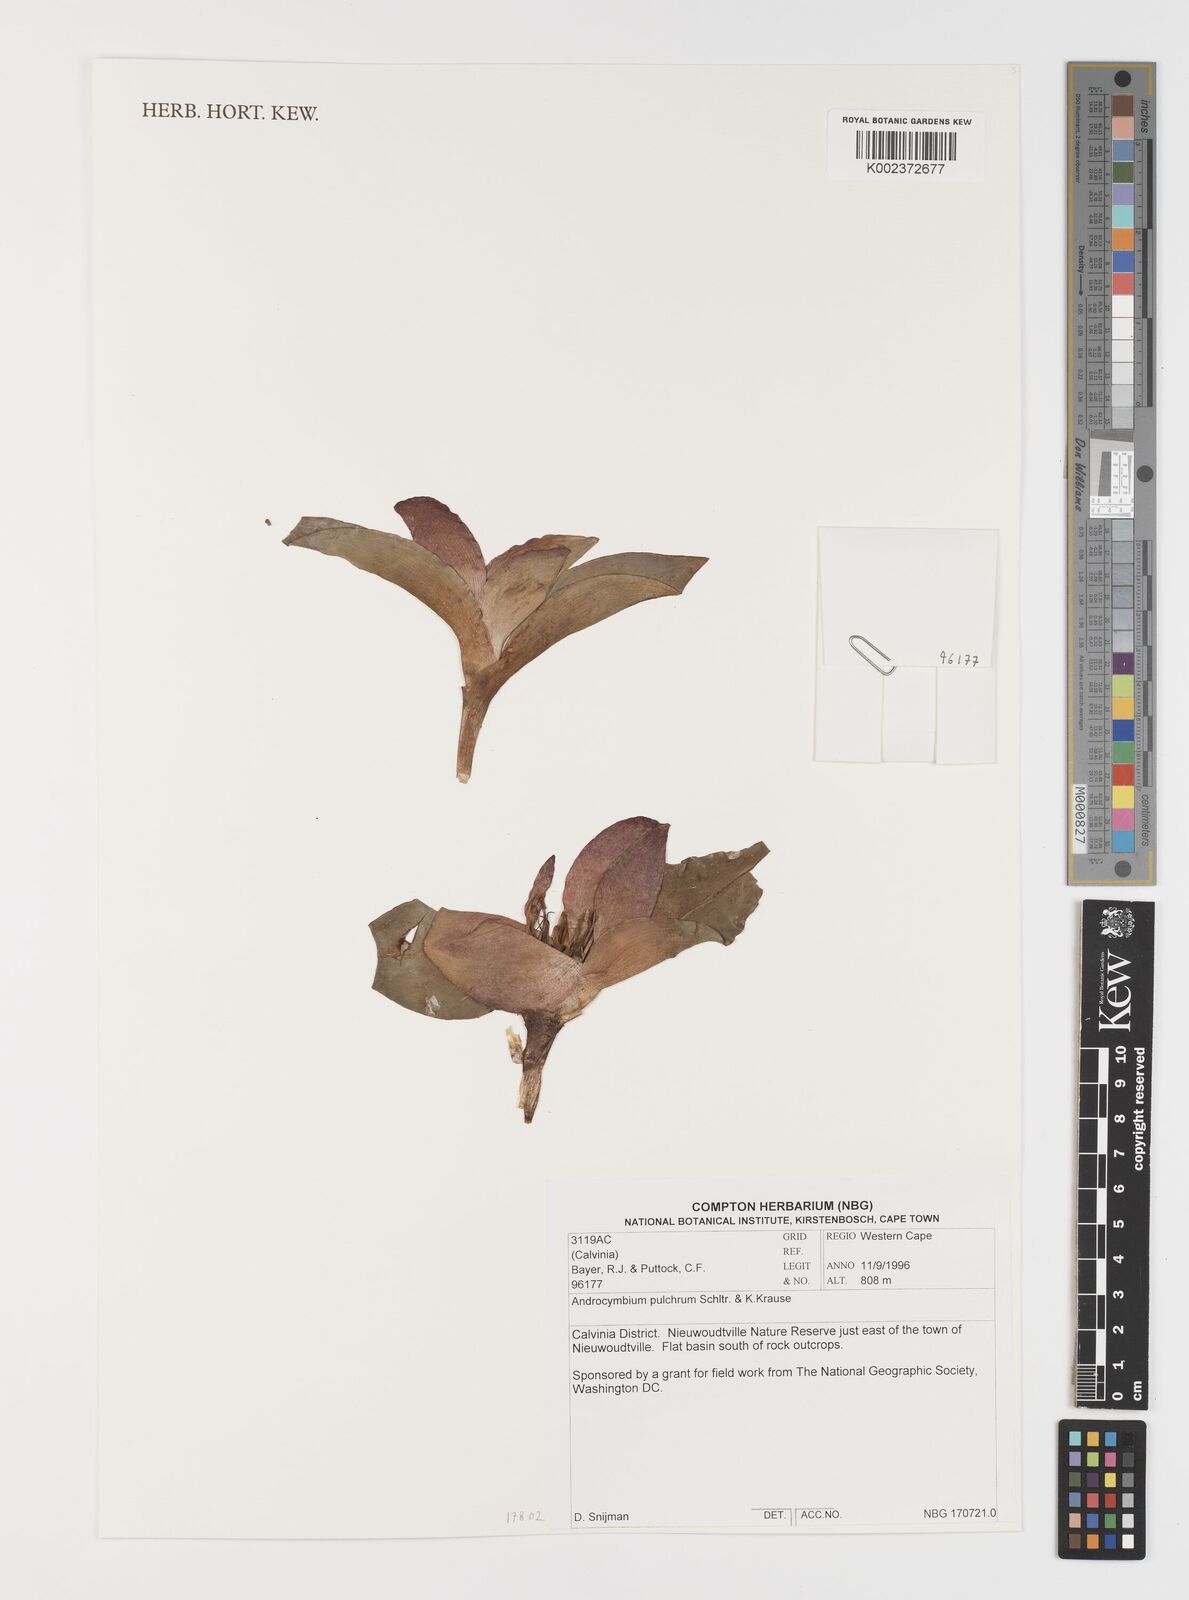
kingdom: Plantae
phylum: Tracheophyta
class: Liliopsida
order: Liliales
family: Colchicaceae
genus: Colchicum
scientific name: Colchicum burchellii
